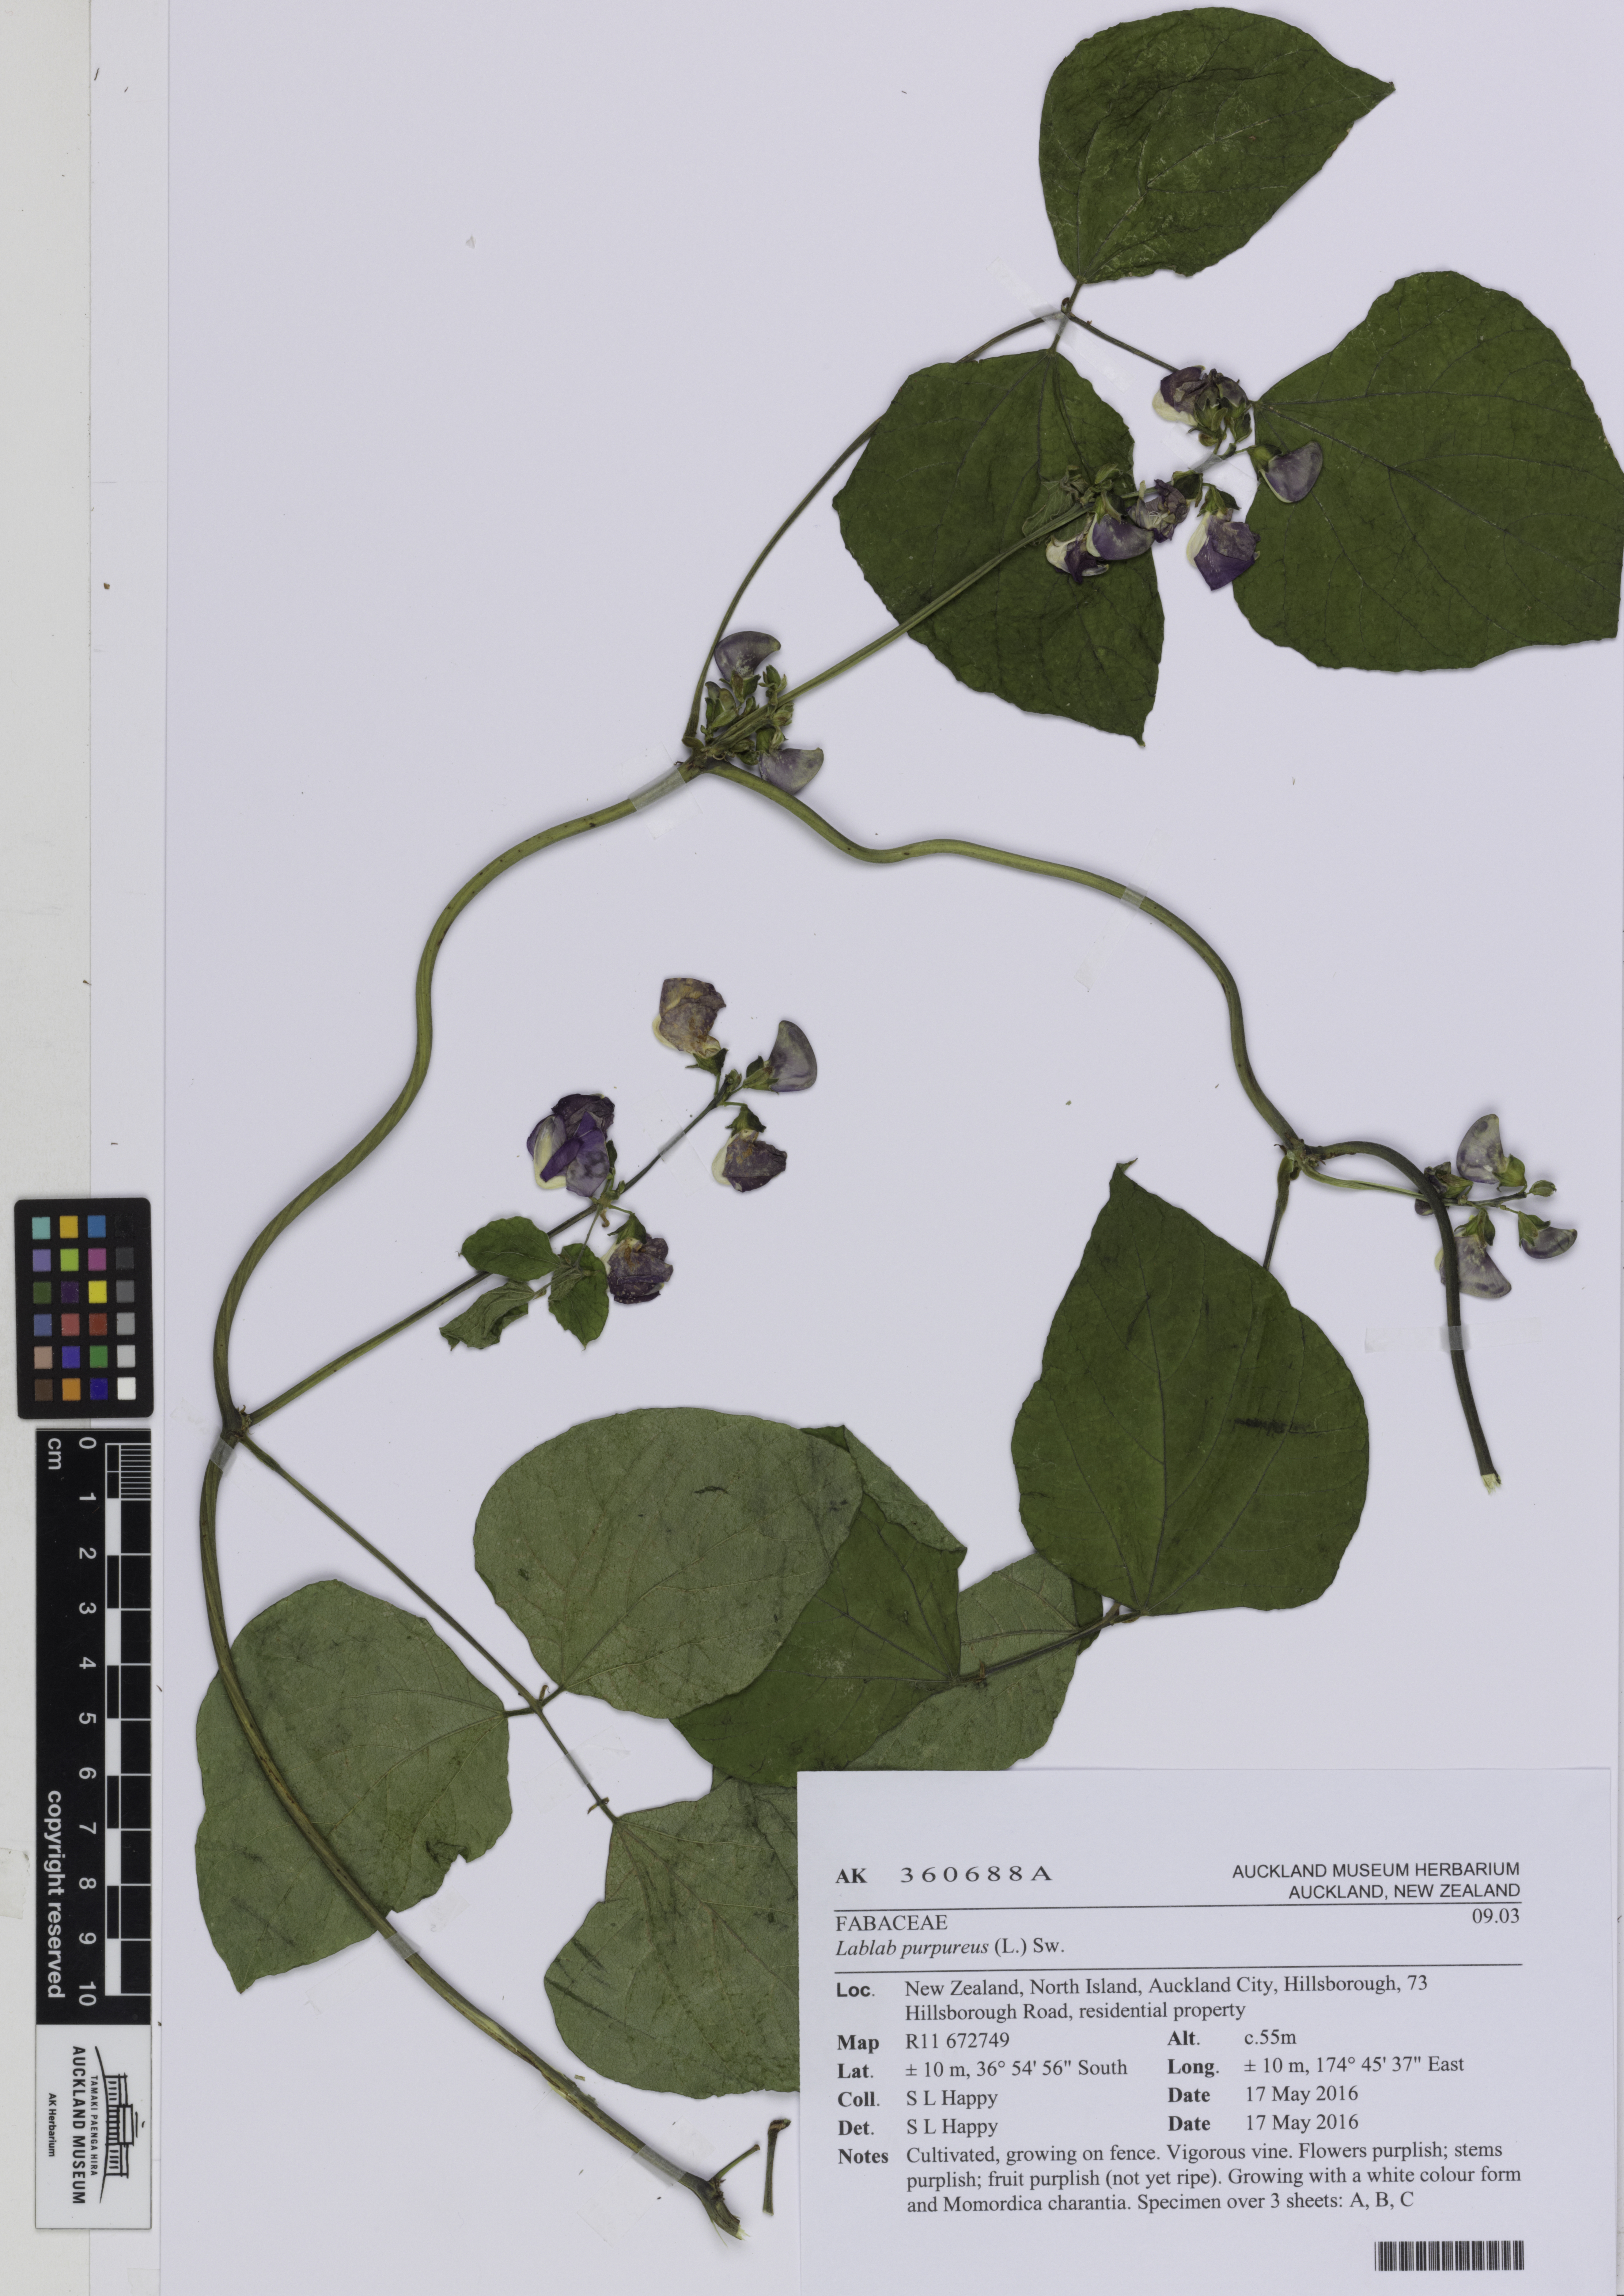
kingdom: Plantae
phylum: Tracheophyta
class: Magnoliopsida
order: Fabales
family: Fabaceae
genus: Lablab
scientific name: Lablab purpureus
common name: Lablab-bean
